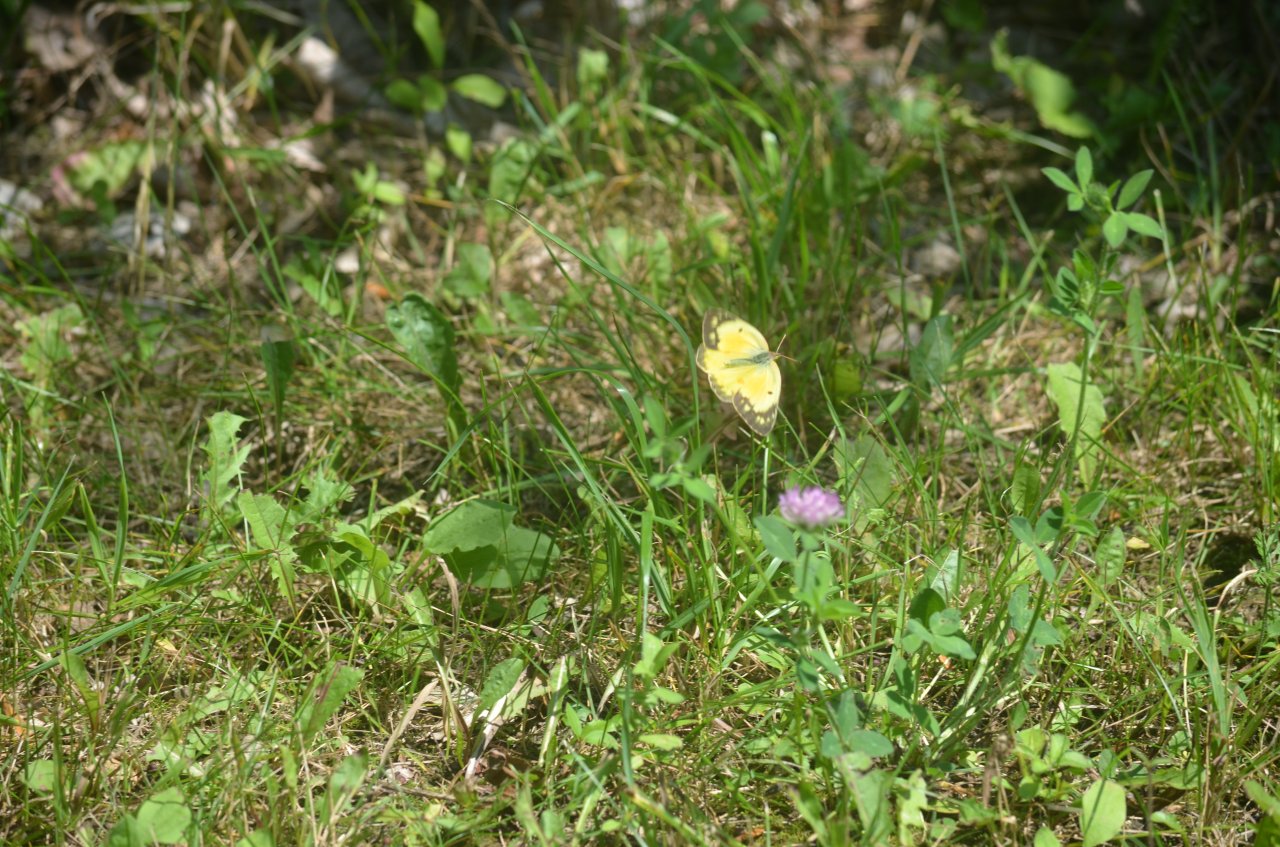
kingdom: Animalia
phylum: Arthropoda
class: Insecta
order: Lepidoptera
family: Pieridae
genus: Colias
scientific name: Colias eurytheme
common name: Orange Sulphur
